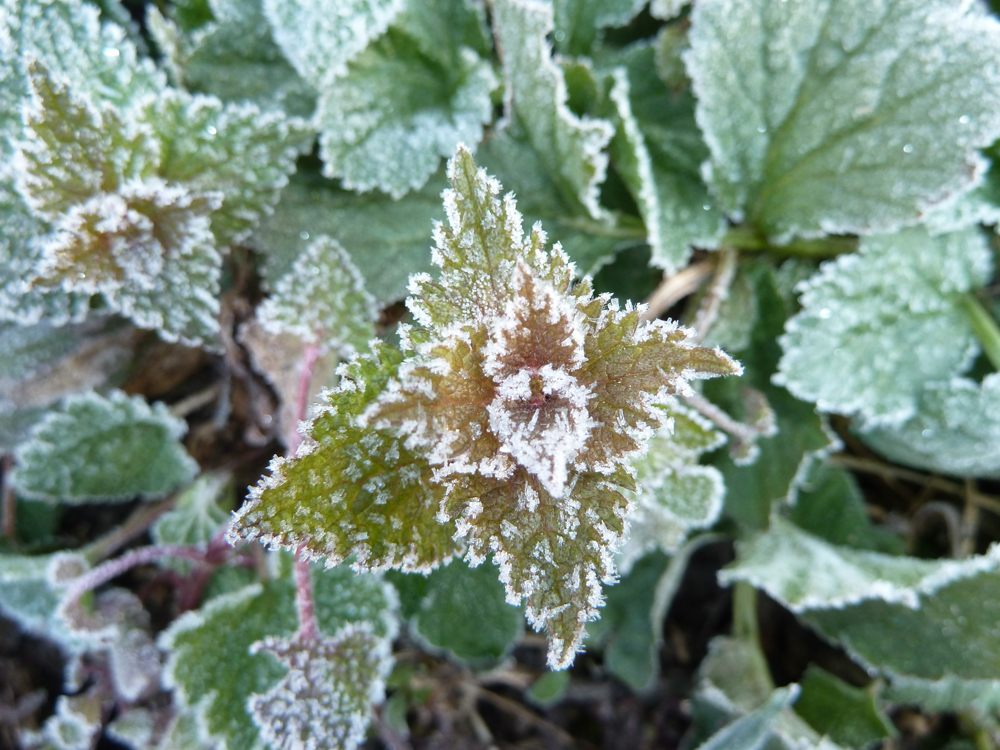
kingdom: Plantae
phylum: Tracheophyta
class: Magnoliopsida
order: Lamiales
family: Lamiaceae
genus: Lamium
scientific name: Lamium maculatum
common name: Spotted dead-nettle
